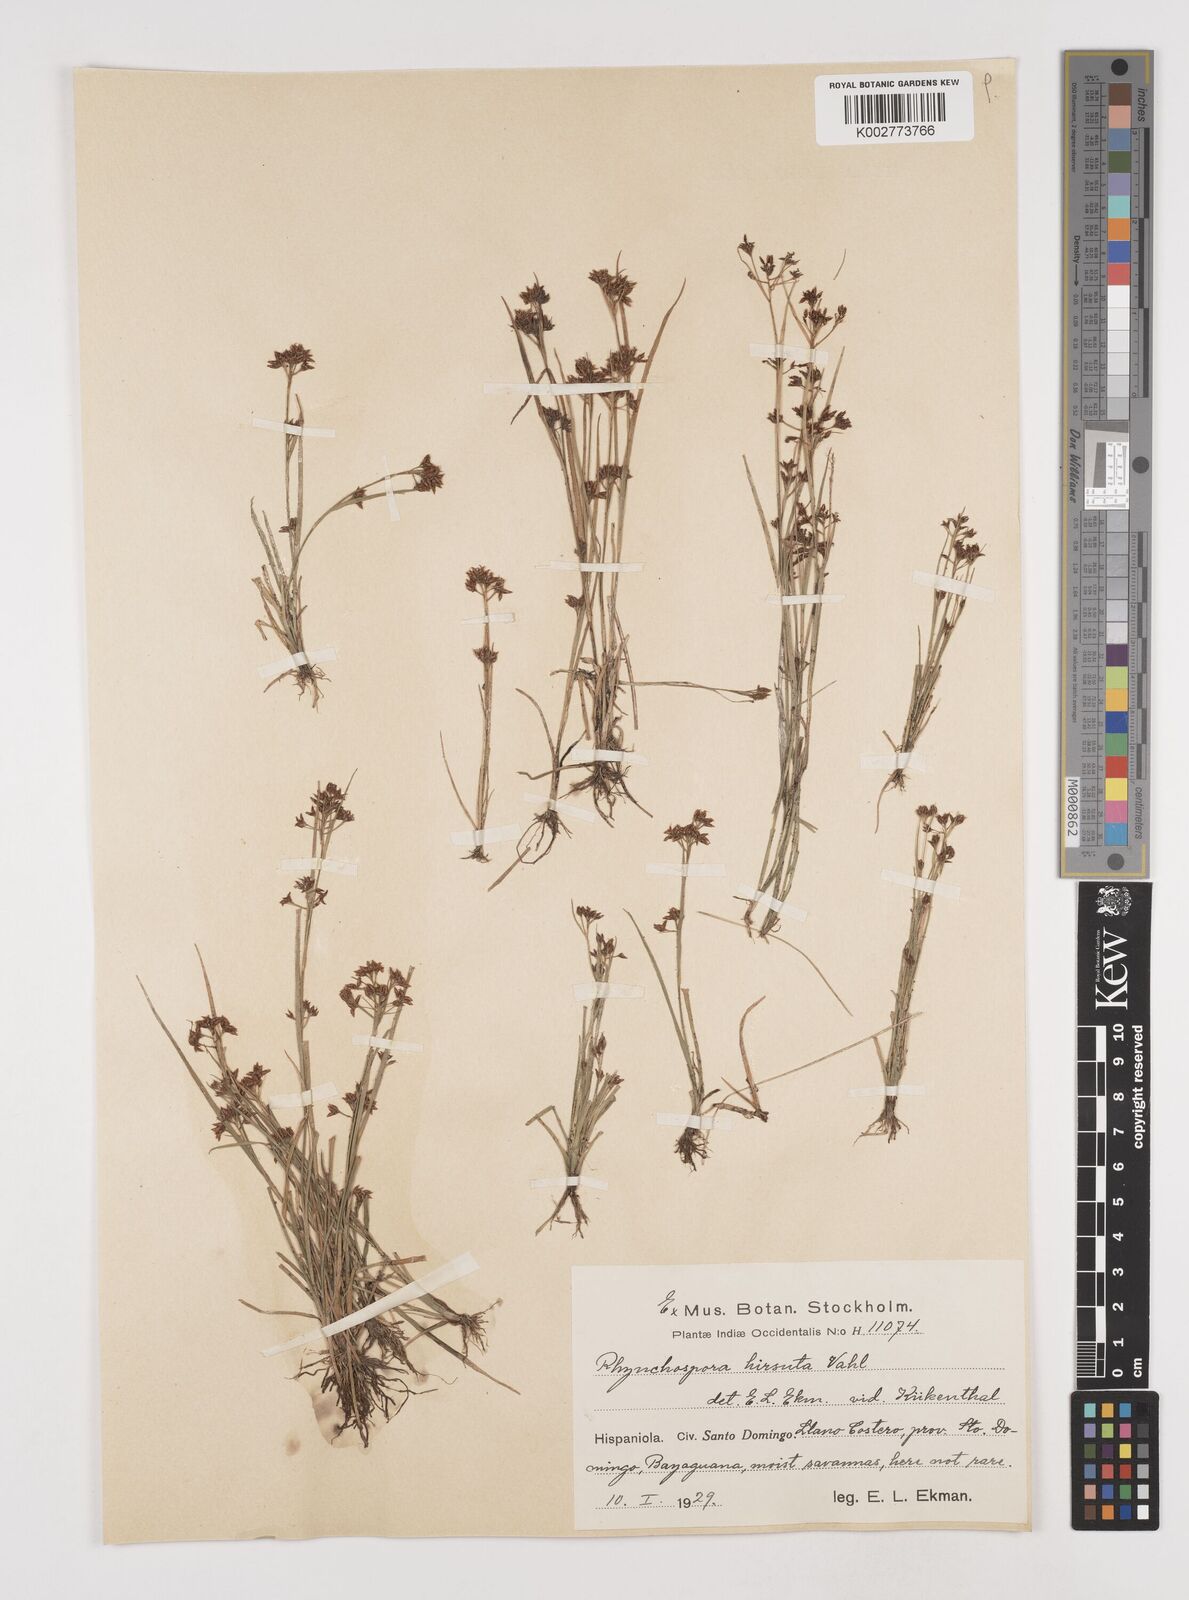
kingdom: Plantae
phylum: Tracheophyta
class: Liliopsida
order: Poales
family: Cyperaceae
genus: Rhynchospora
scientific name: Rhynchospora hirsuta
